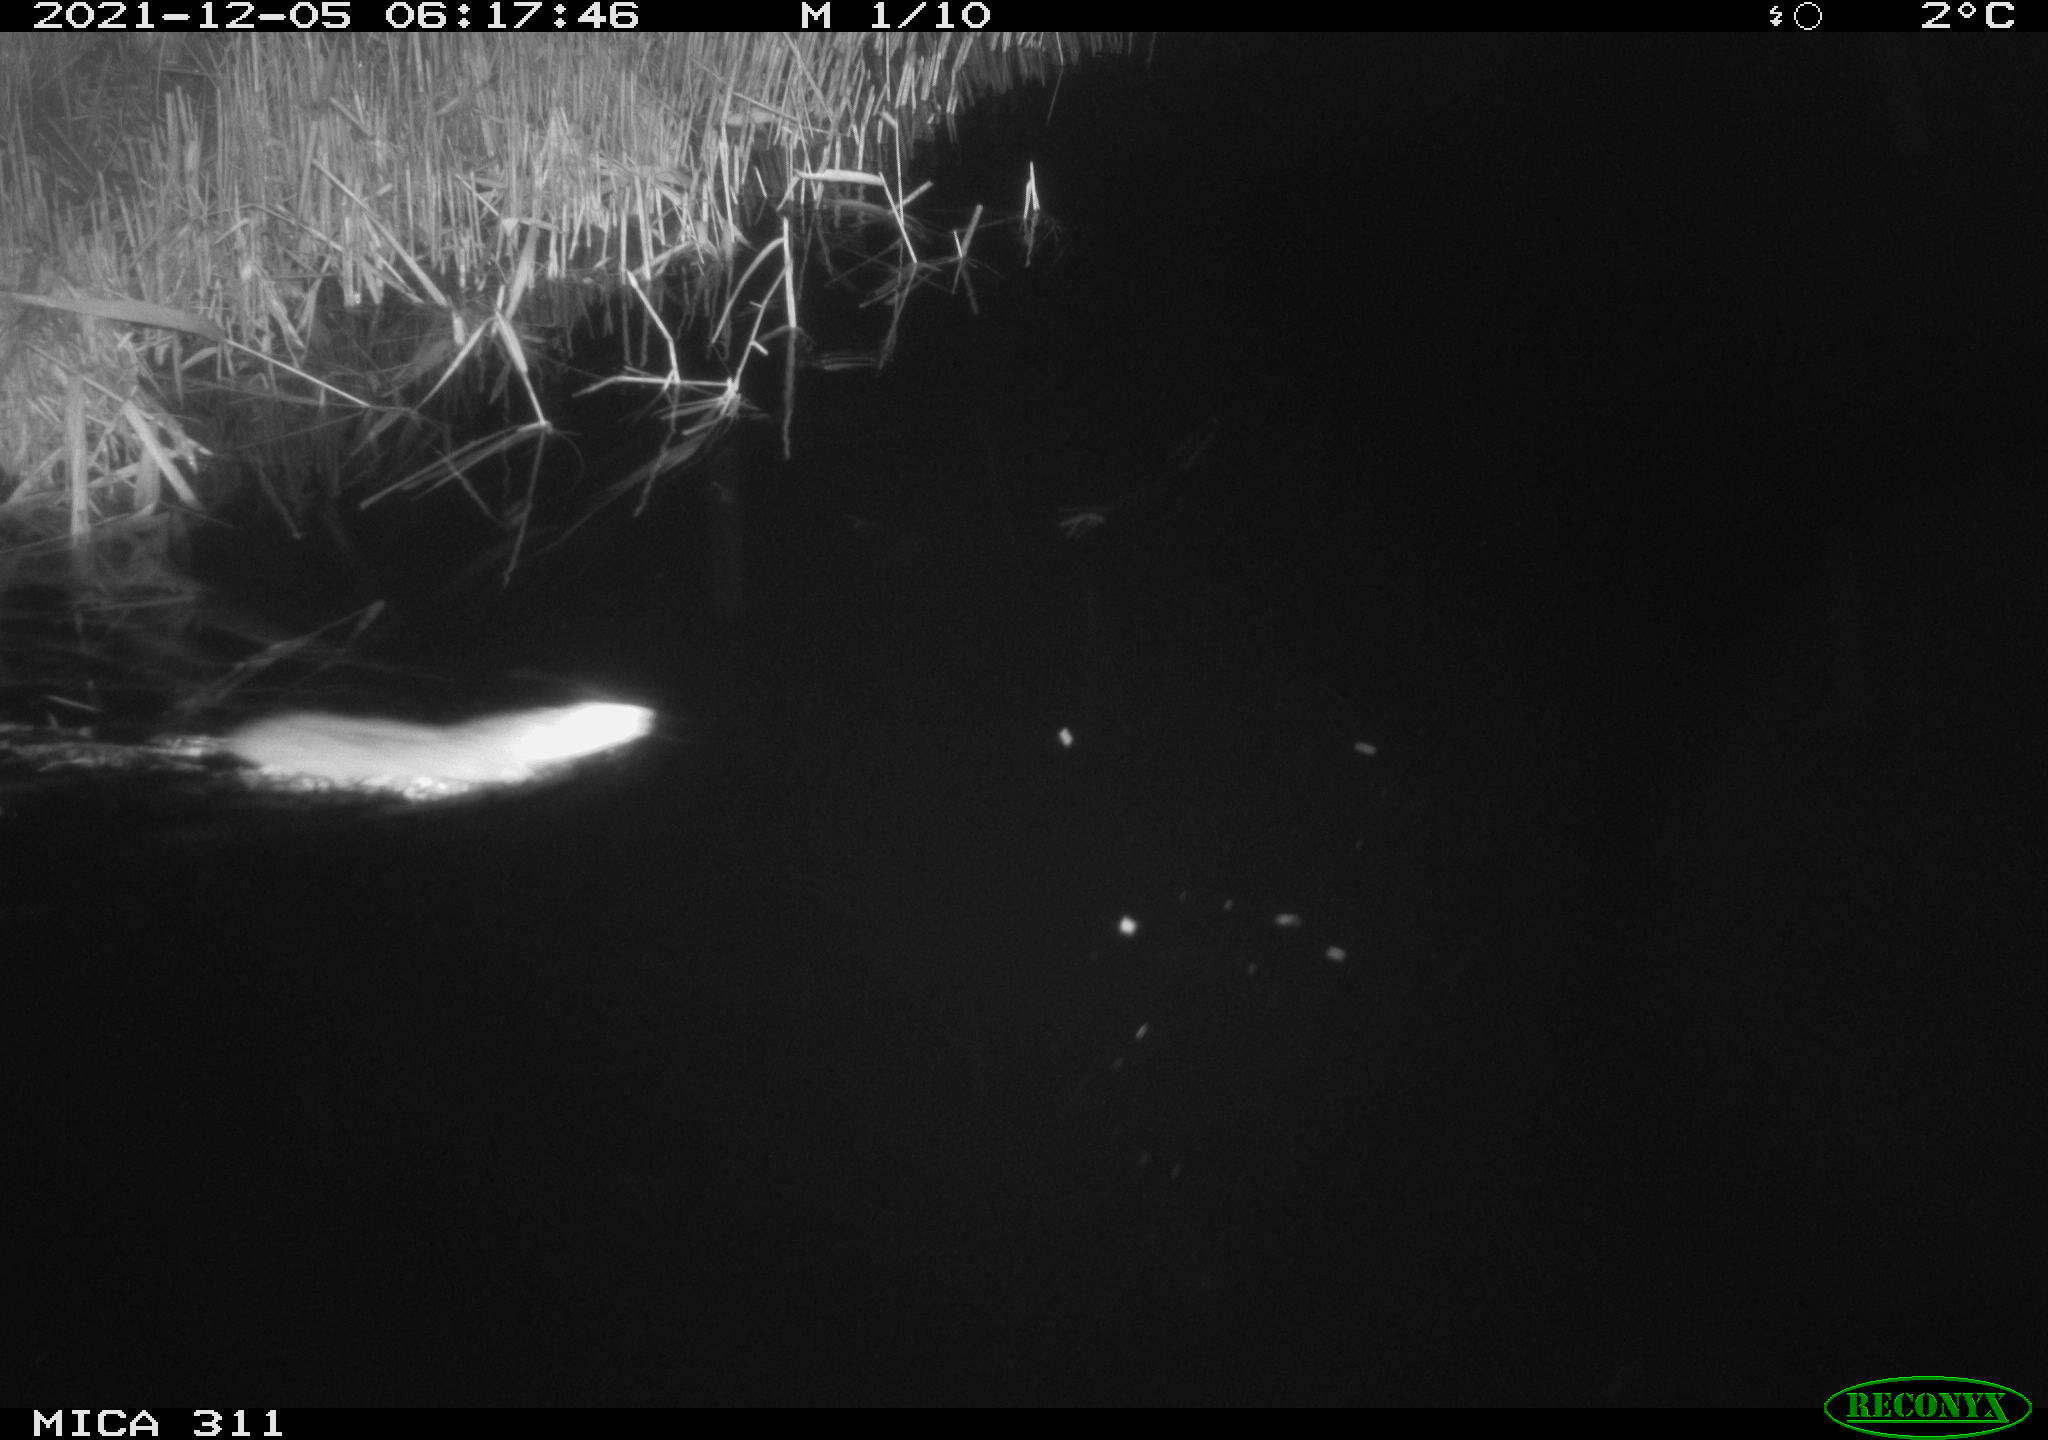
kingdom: Animalia
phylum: Chordata
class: Mammalia
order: Rodentia
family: Muridae
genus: Rattus
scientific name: Rattus norvegicus
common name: Brown rat
